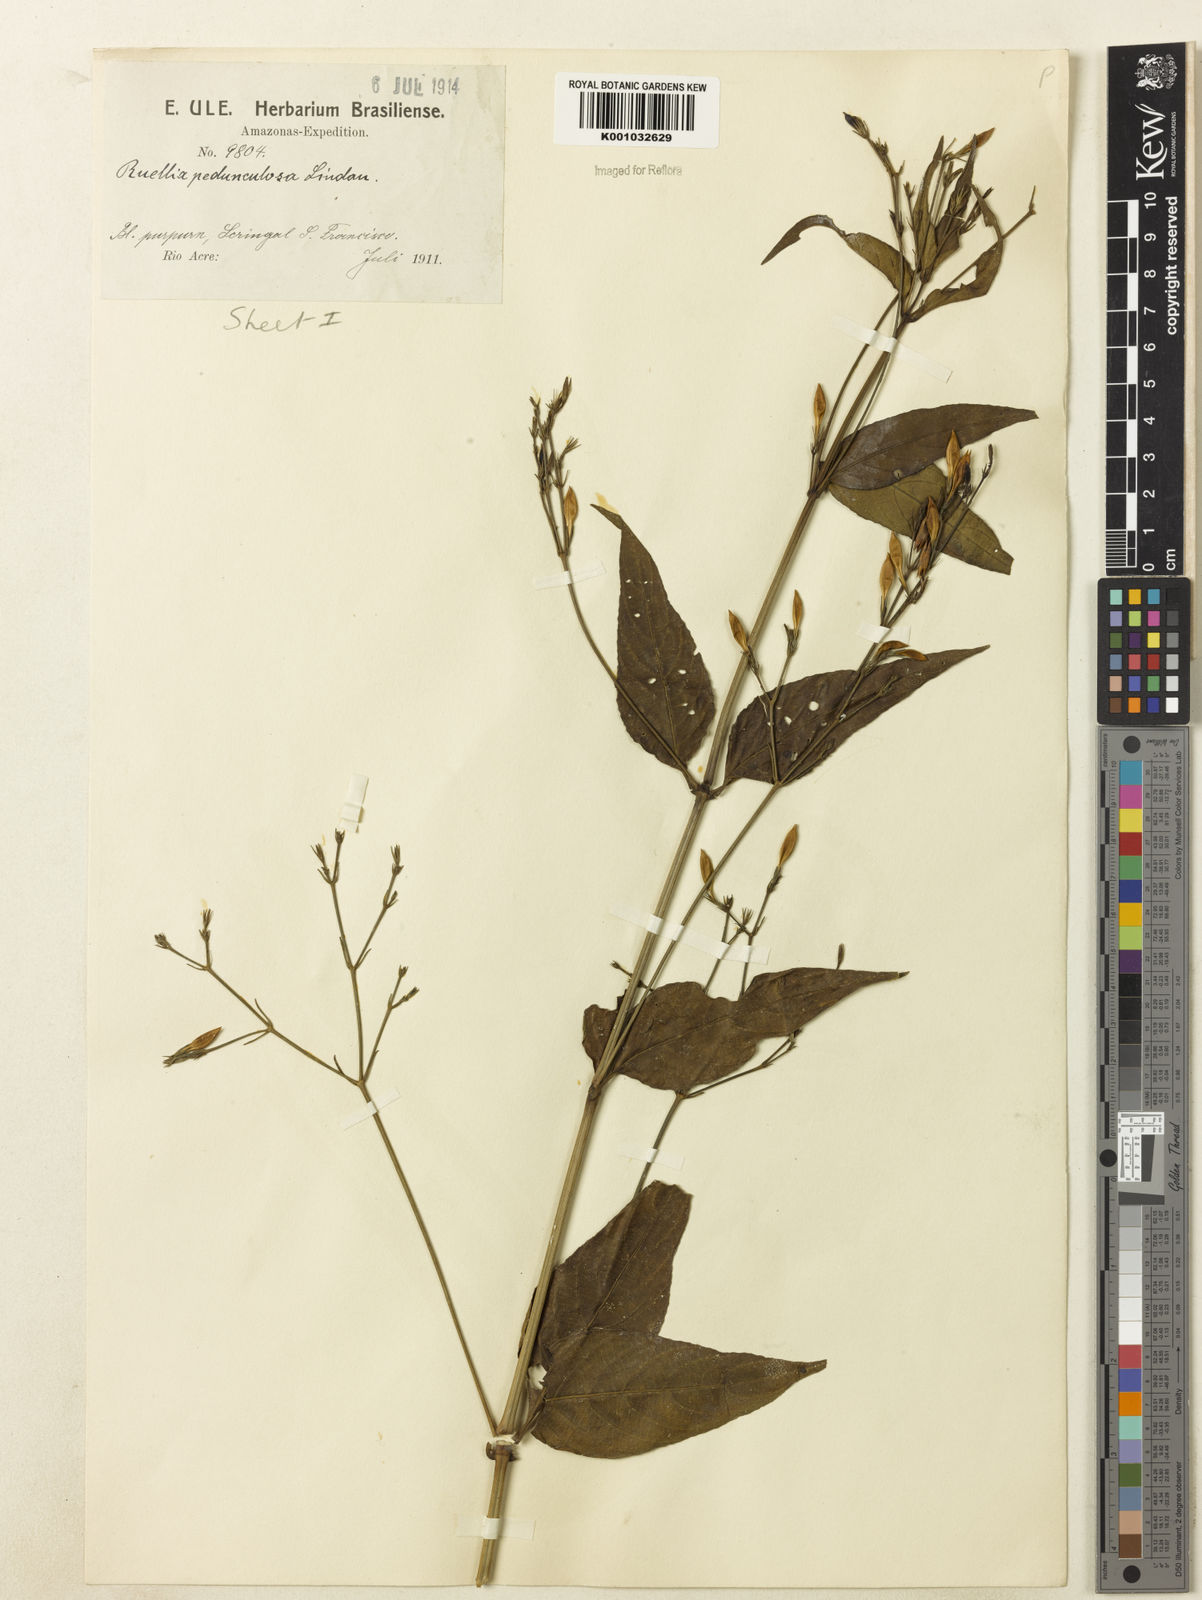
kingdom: Plantae
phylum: Tracheophyta
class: Magnoliopsida
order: Lamiales
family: Acanthaceae
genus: Ruellia
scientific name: Ruellia pedunculata
